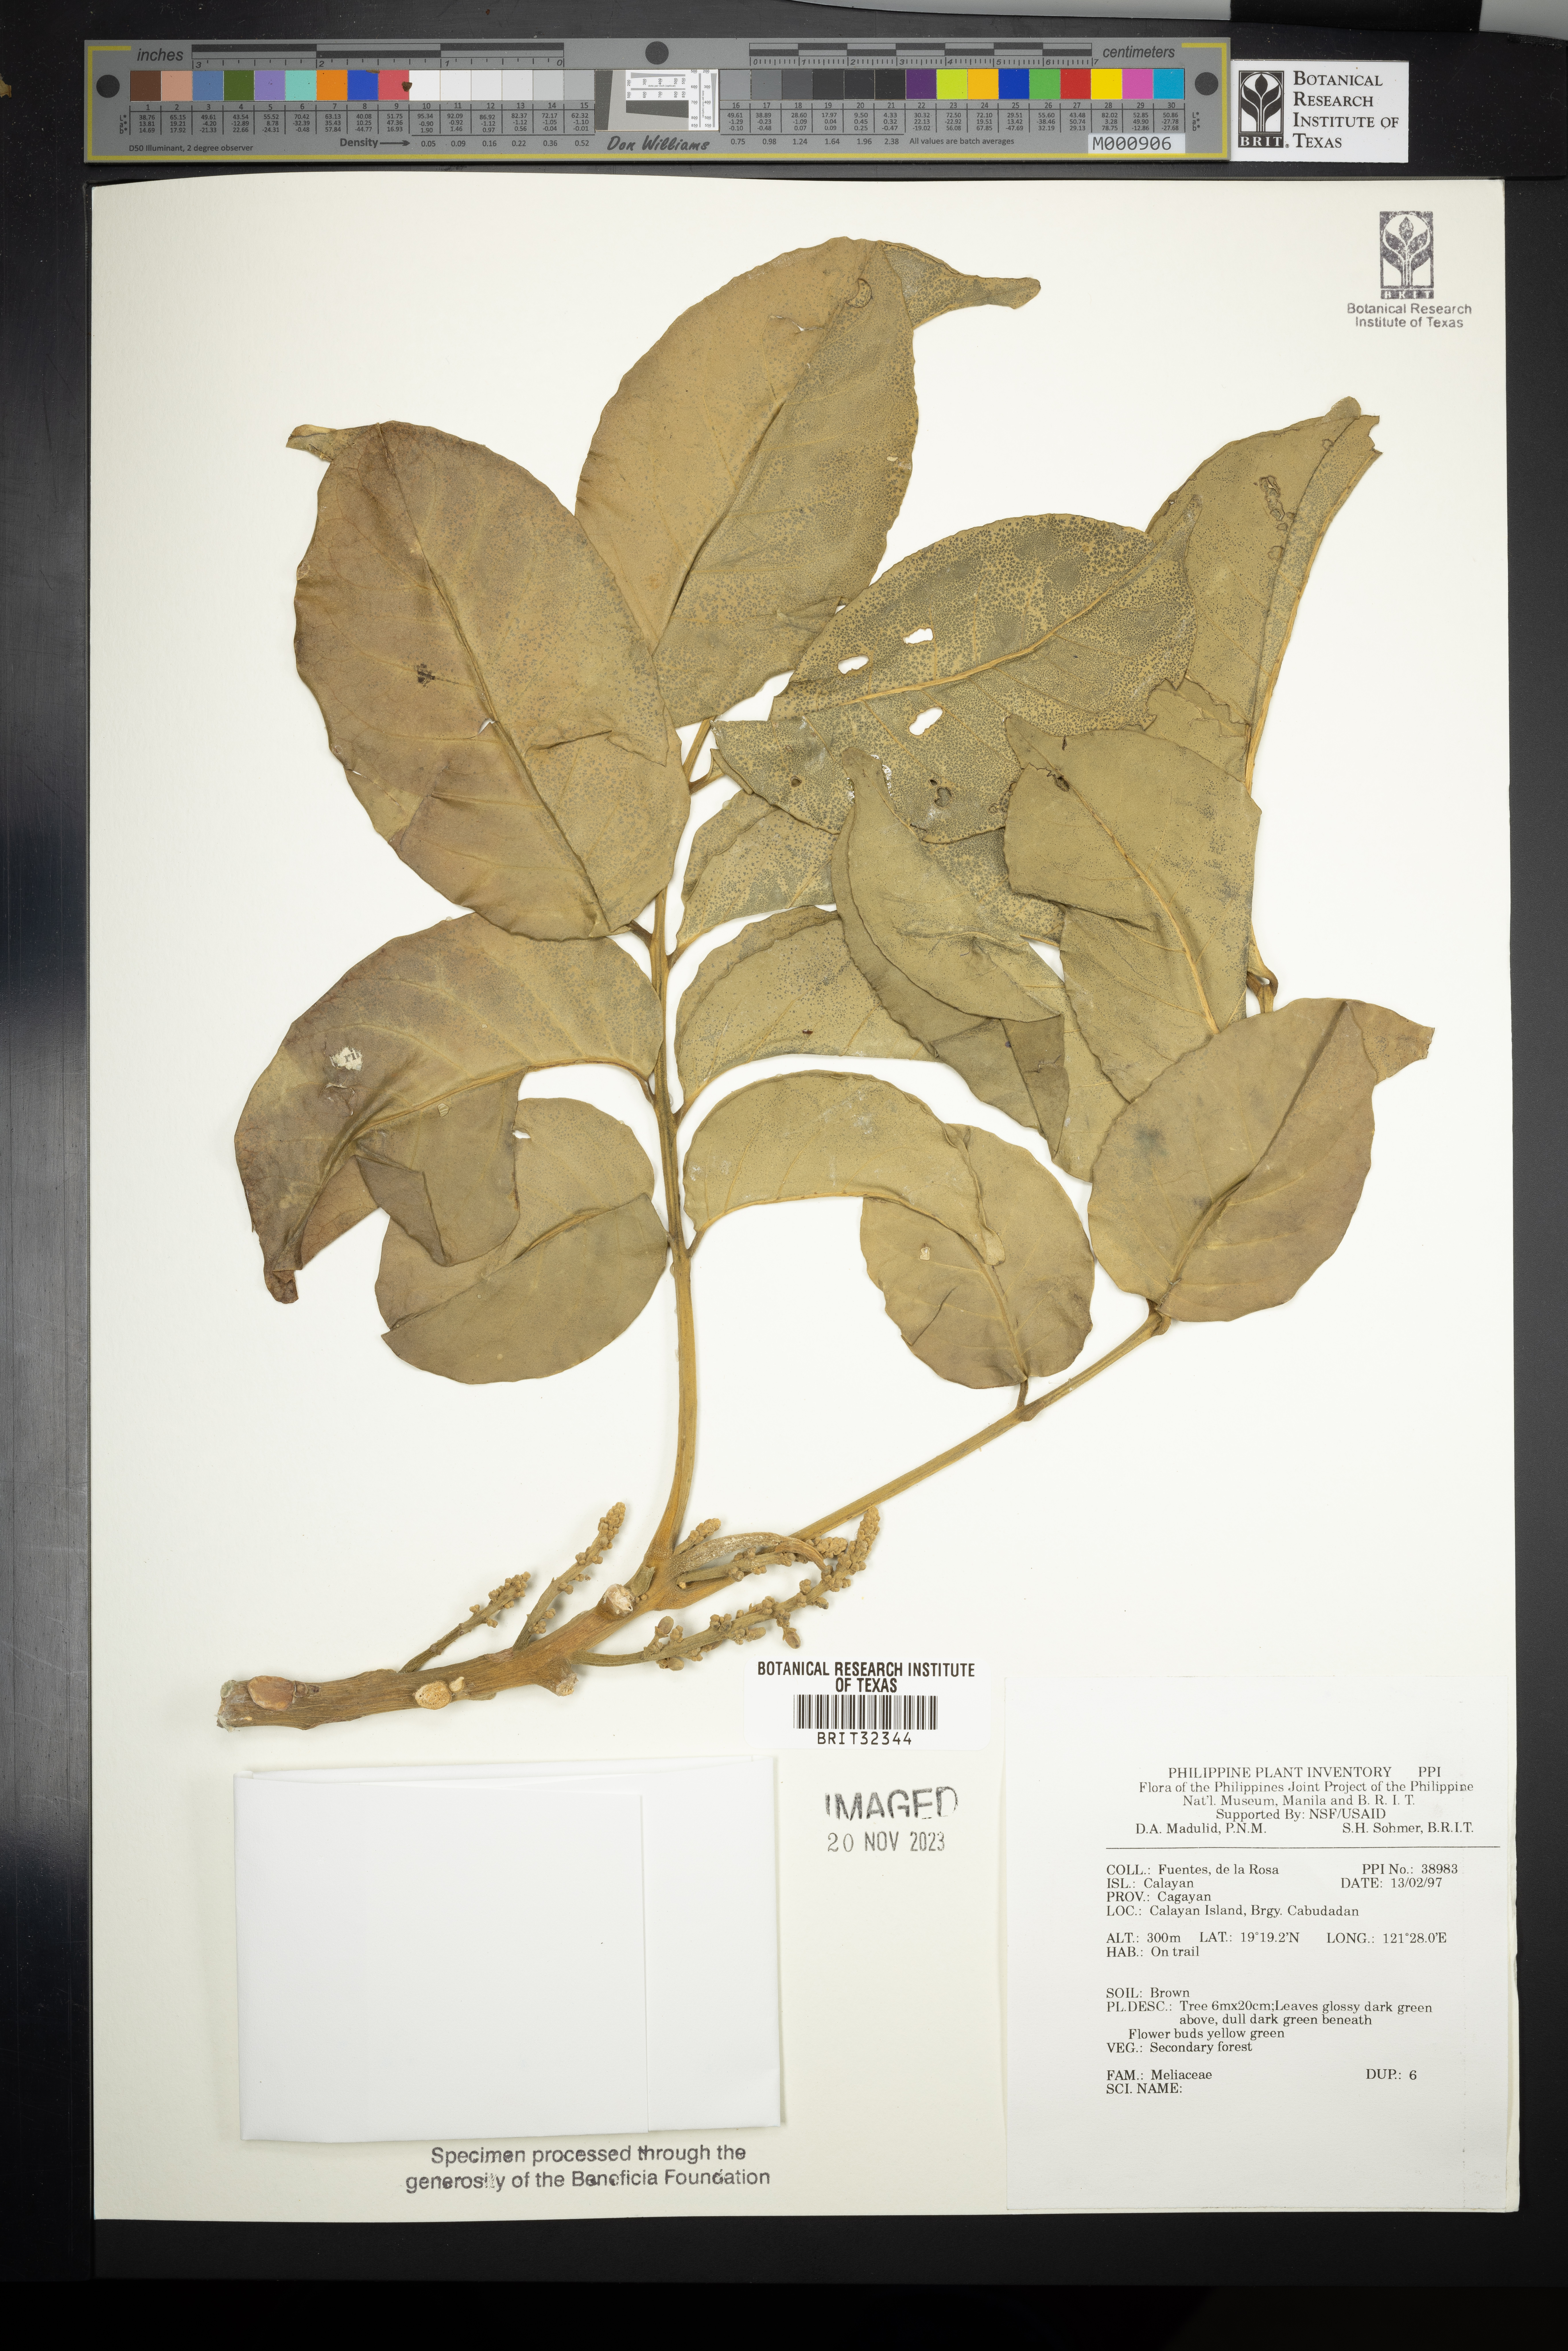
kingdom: Plantae
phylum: Tracheophyta
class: Magnoliopsida
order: Sapindales
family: Meliaceae
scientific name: Meliaceae
